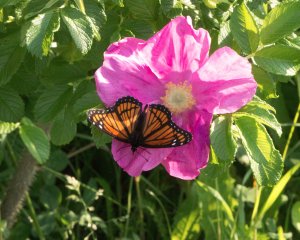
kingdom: Animalia
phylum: Arthropoda
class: Insecta
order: Lepidoptera
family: Nymphalidae
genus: Limenitis
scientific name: Limenitis archippus
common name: Viceroy
